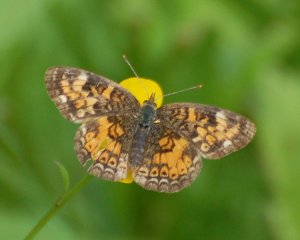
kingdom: Animalia
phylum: Arthropoda
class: Insecta
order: Lepidoptera
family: Nymphalidae
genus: Chlosyne
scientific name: Chlosyne harrisii
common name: Harris's Checkerspot
